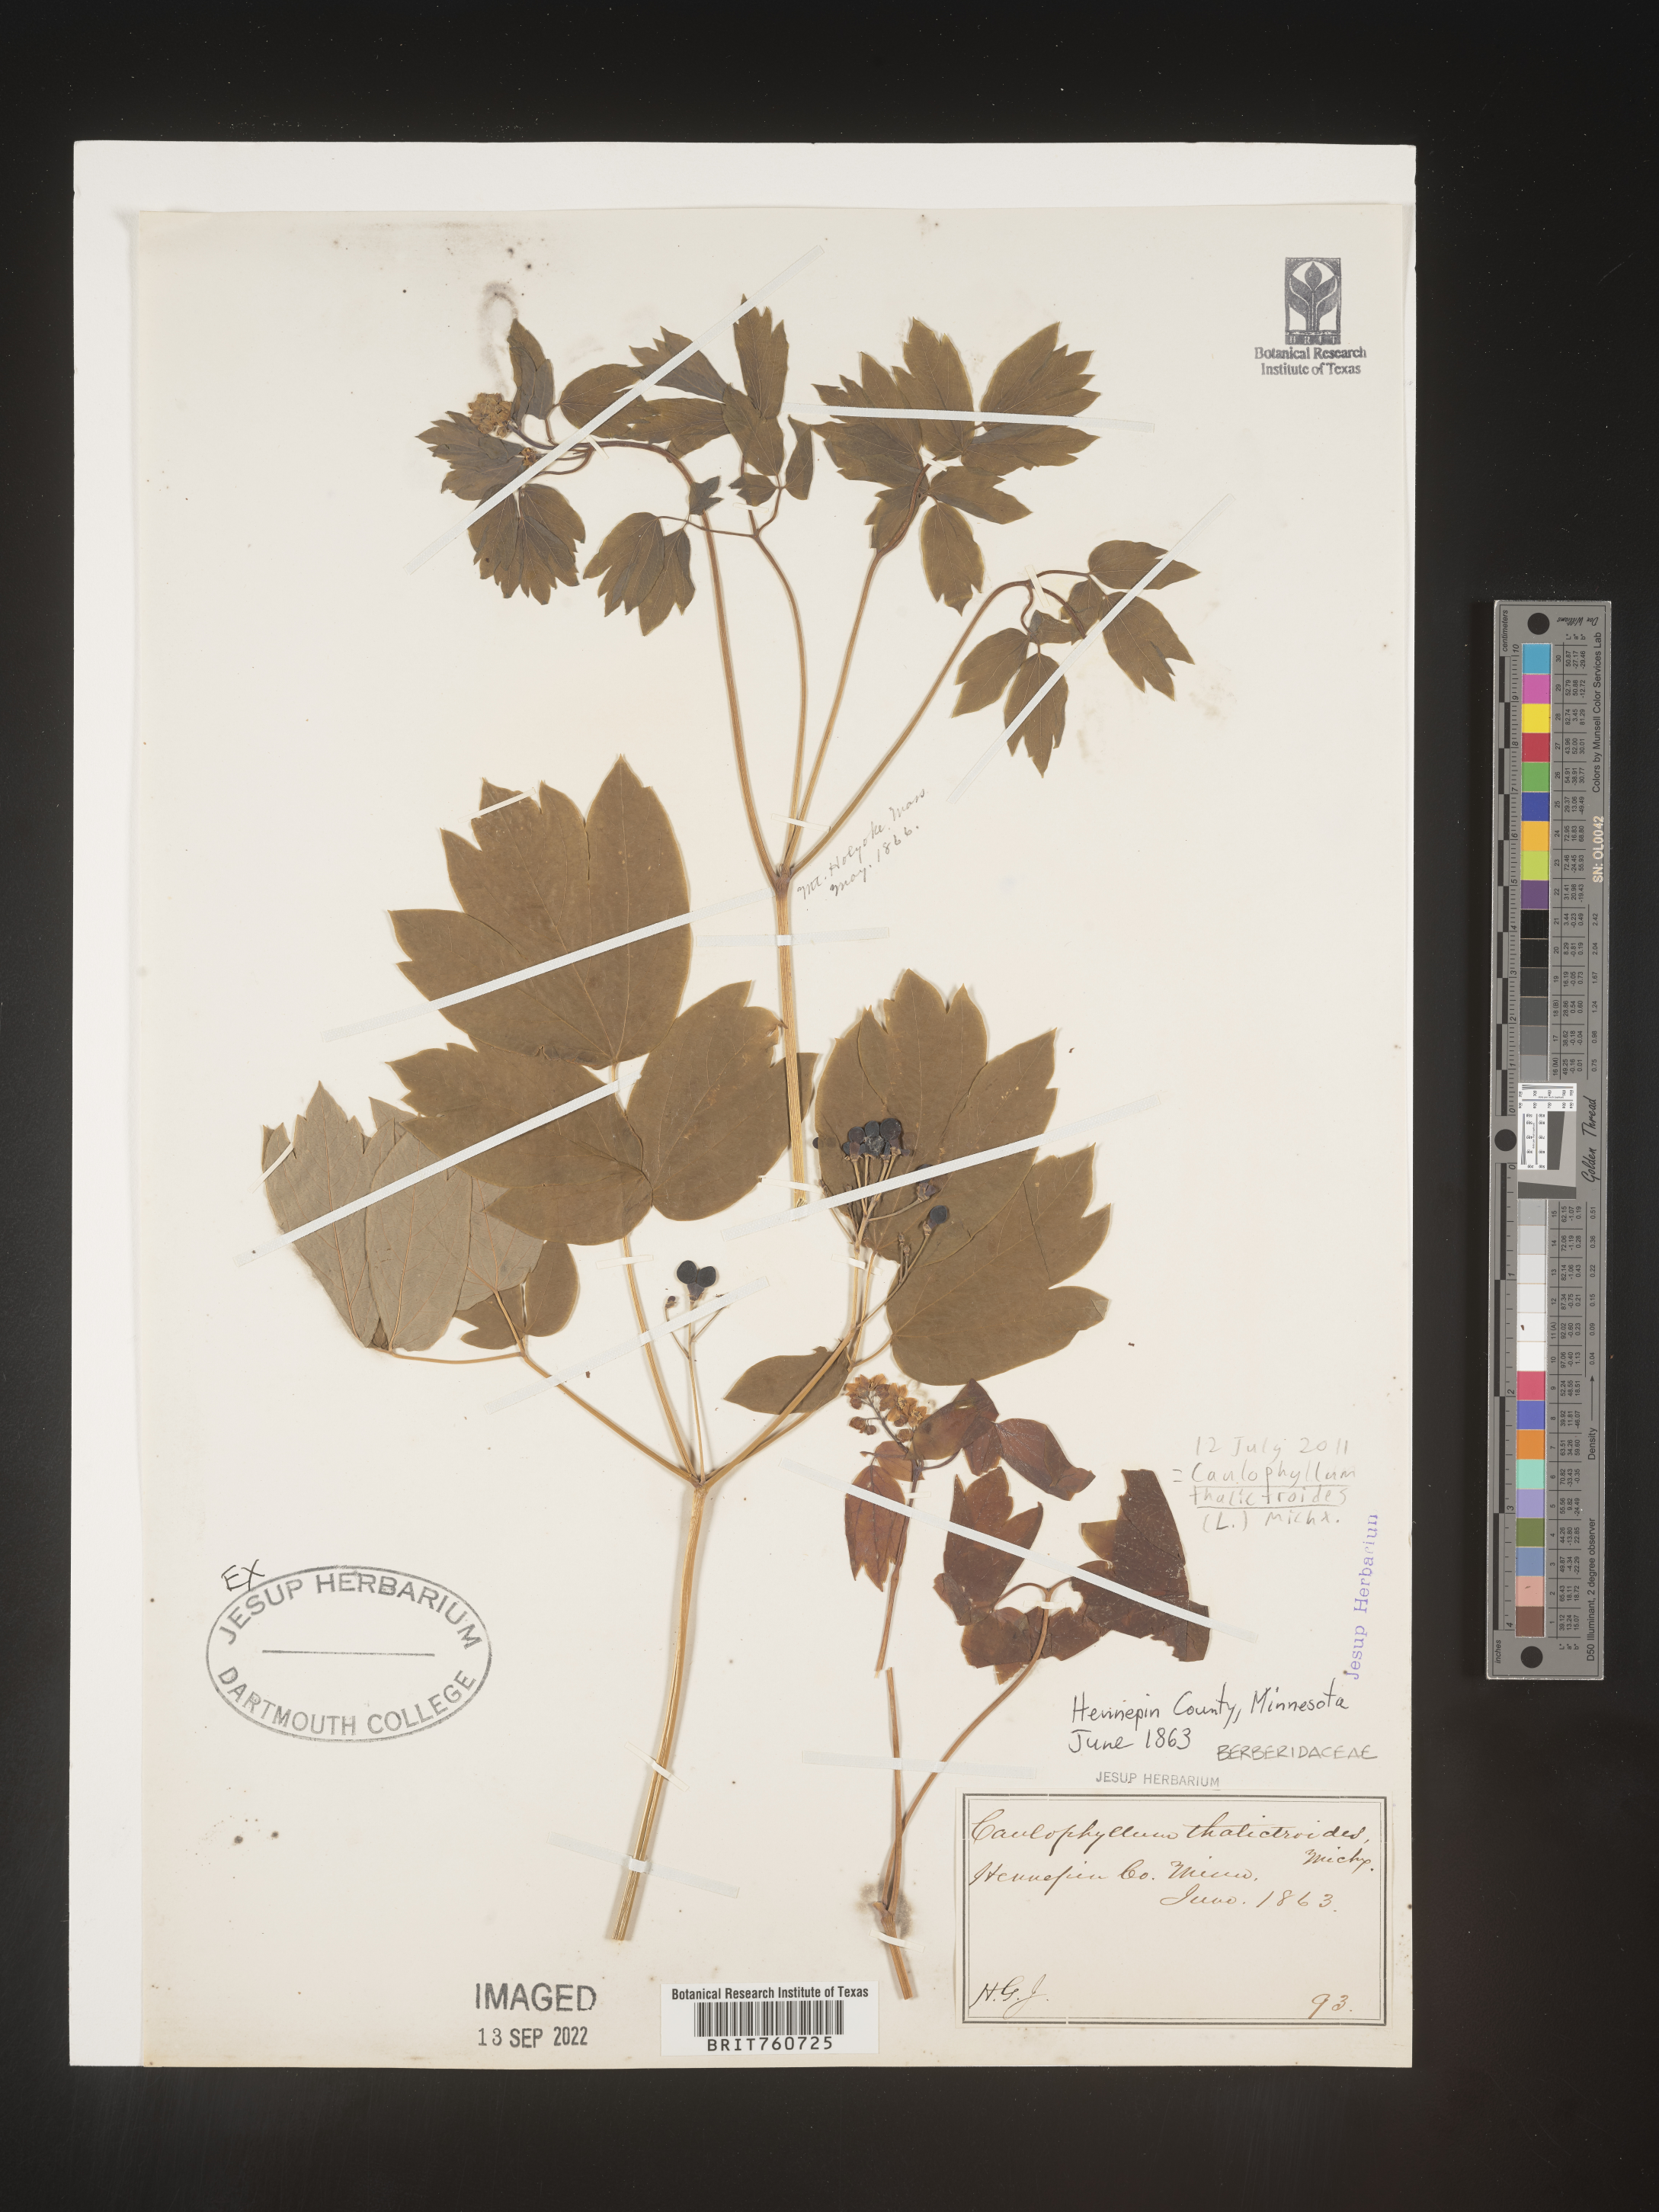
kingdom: Plantae
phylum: Tracheophyta
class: Magnoliopsida
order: Ranunculales
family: Berberidaceae
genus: Caulophyllum
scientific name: Caulophyllum thalictroides
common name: Blue cohosh
